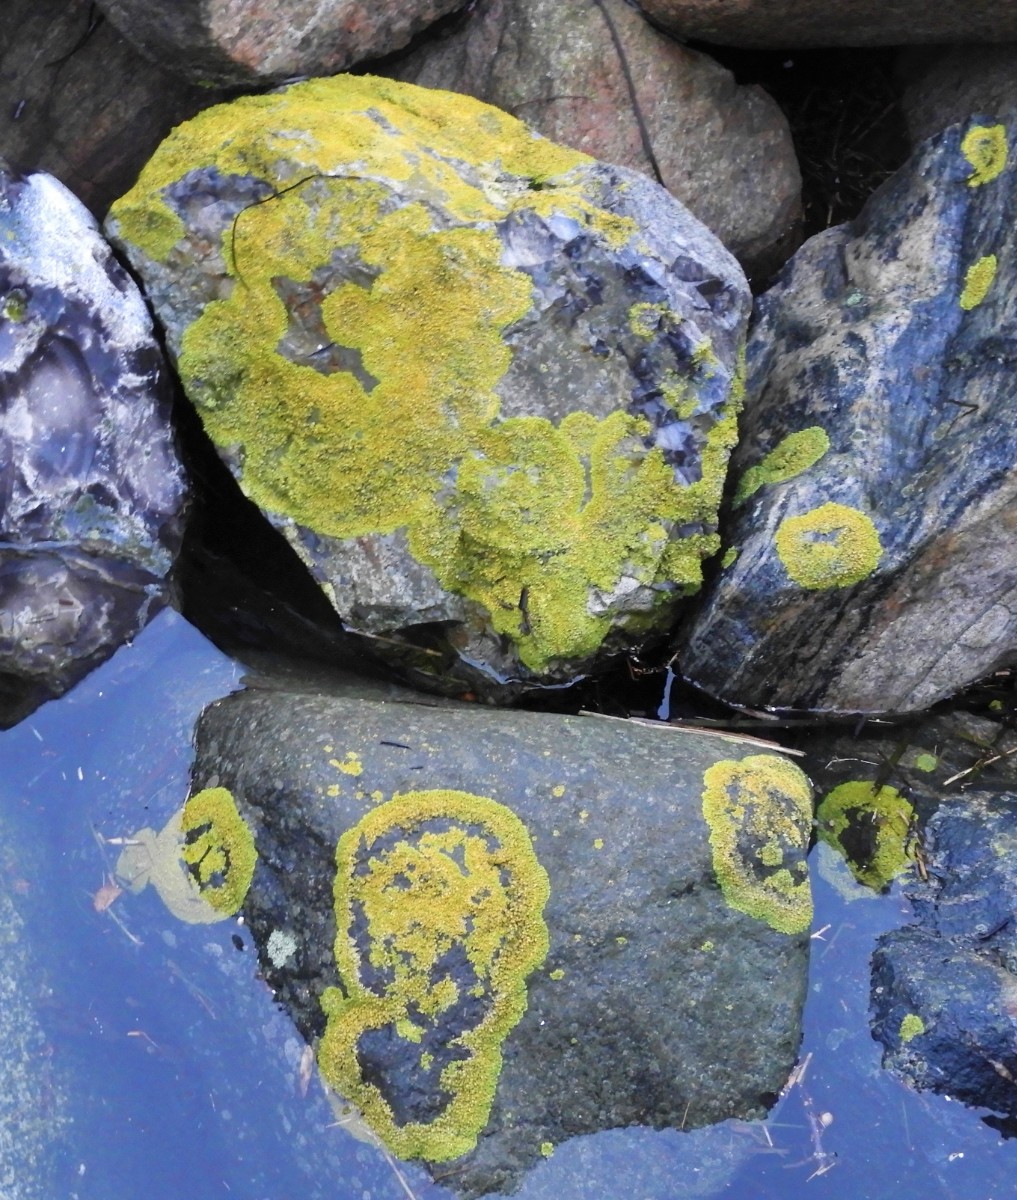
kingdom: Fungi
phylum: Ascomycota
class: Lecanoromycetes
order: Teloschistales
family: Teloschistaceae
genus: Xanthoria
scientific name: Xanthoria parietina
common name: almindelig væggelav
